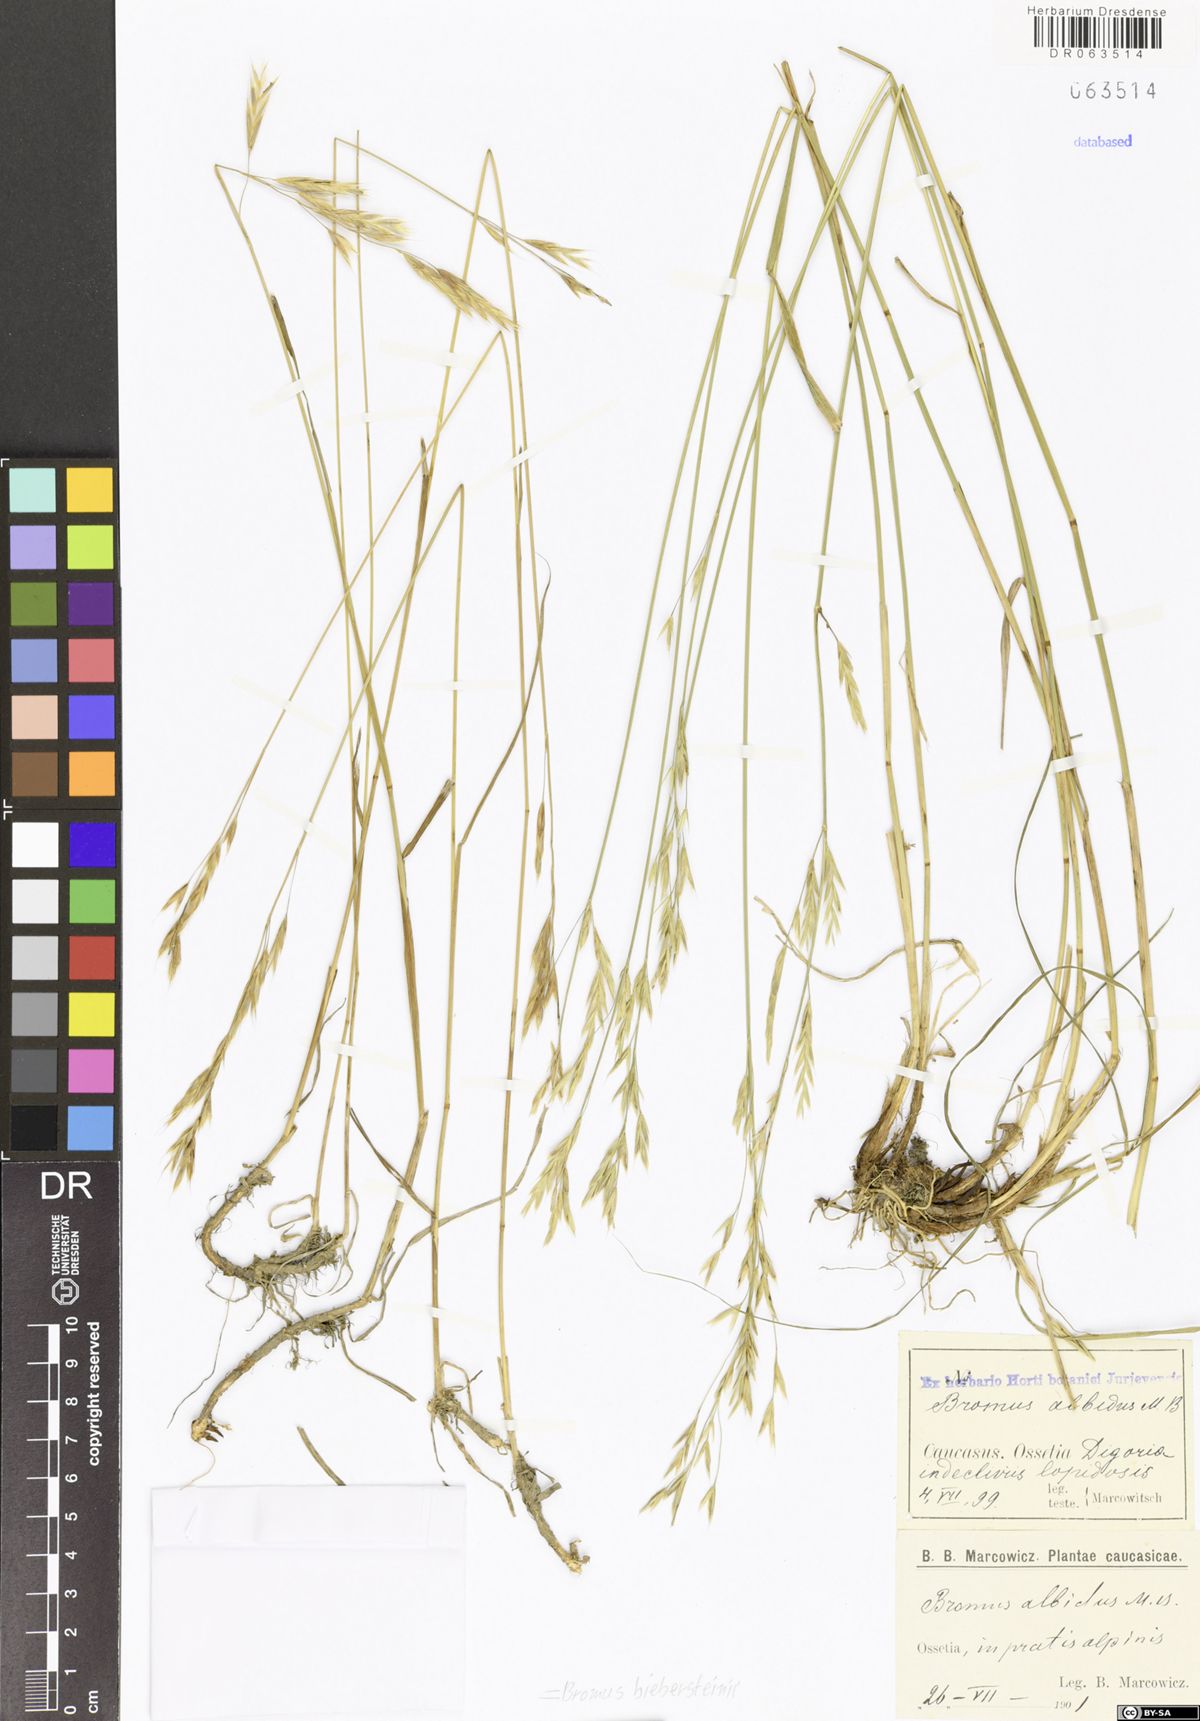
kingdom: Plantae
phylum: Tracheophyta
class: Liliopsida
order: Poales
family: Poaceae
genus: Bromus
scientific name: Bromus biebersteinii
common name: Bieberstein brome
